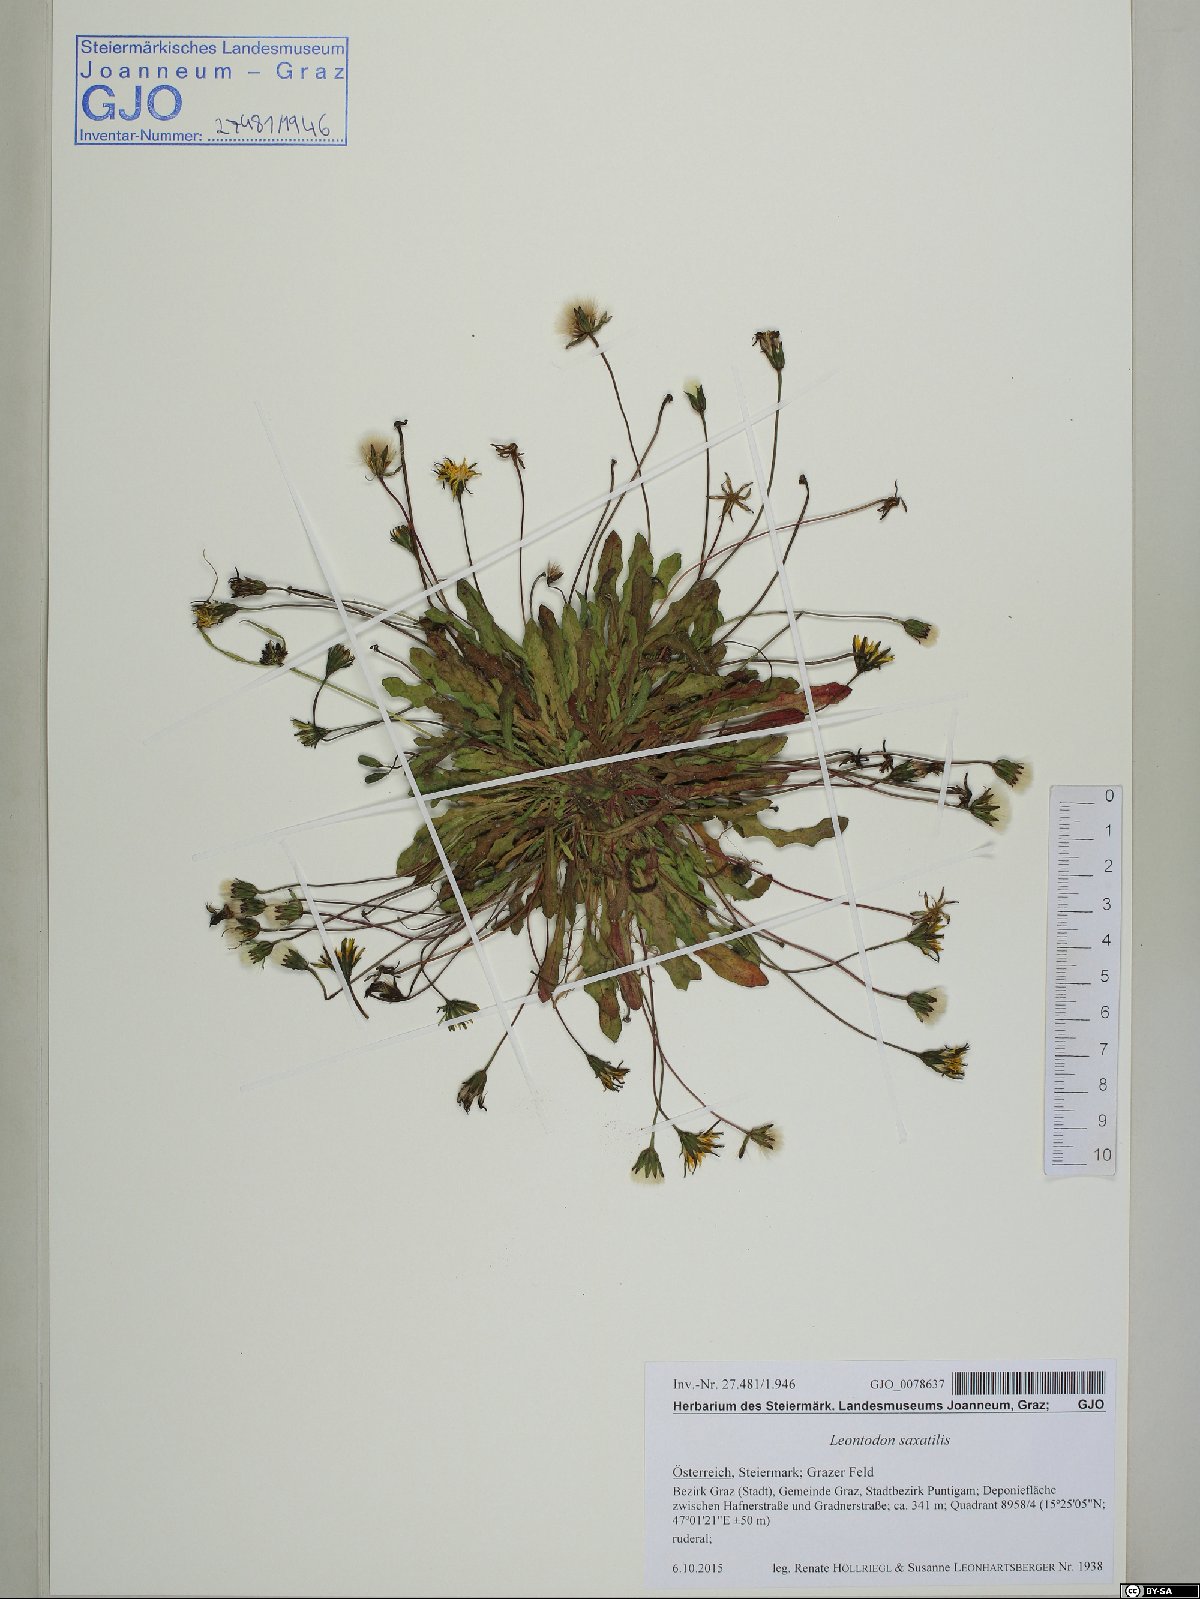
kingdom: Plantae
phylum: Tracheophyta
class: Magnoliopsida
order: Asterales
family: Asteraceae
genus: Thrincia
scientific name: Thrincia saxatilis
